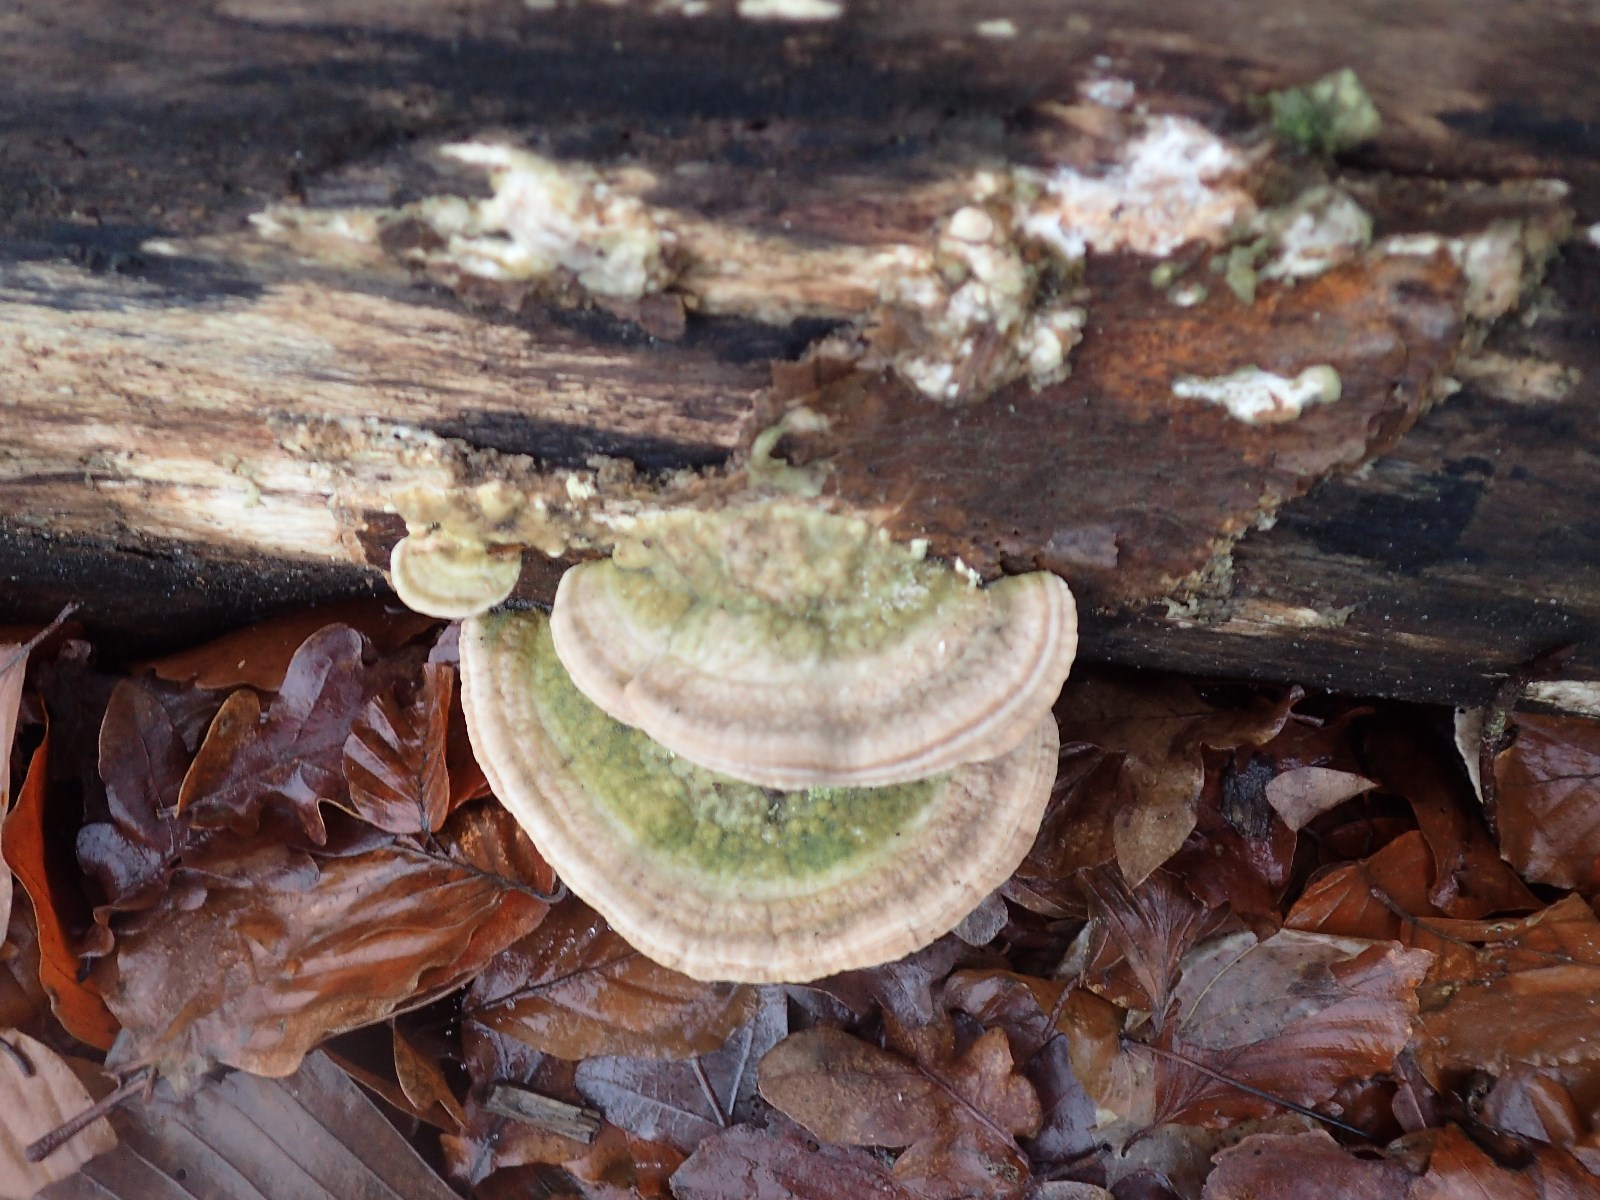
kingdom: Fungi
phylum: Basidiomycota
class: Agaricomycetes
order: Polyporales
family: Polyporaceae
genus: Trametes
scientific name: Trametes hirsuta
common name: håret læderporesvamp
